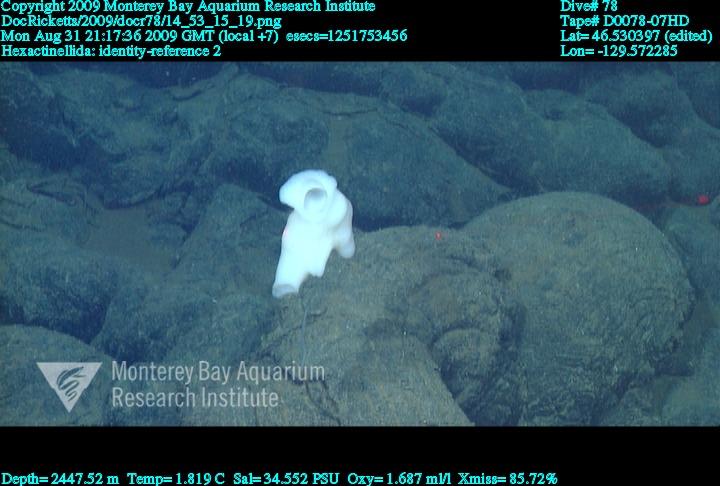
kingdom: Animalia
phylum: Porifera
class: Hexactinellida
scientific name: Hexactinellida
